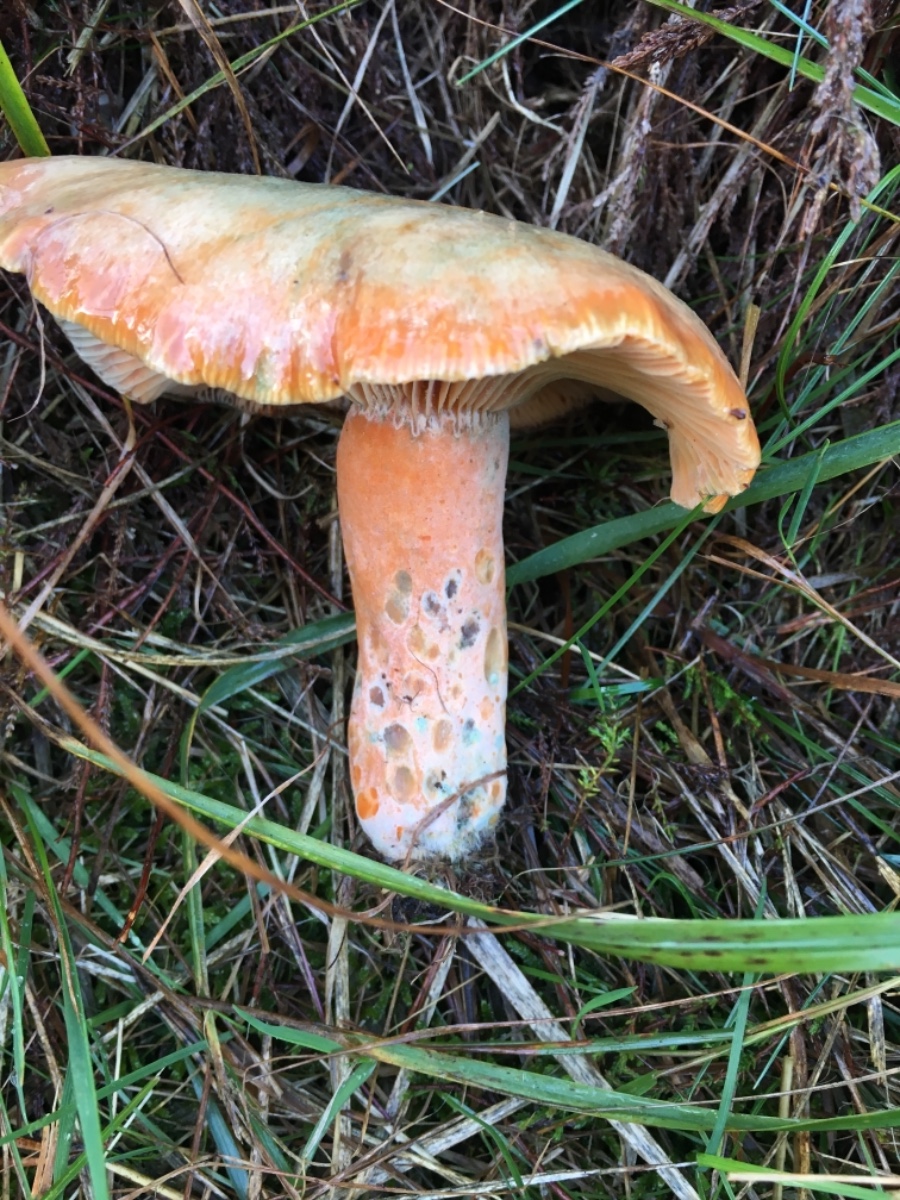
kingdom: Fungi
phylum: Basidiomycota
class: Agaricomycetes
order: Russulales
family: Russulaceae
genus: Lactarius
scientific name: Lactarius deliciosus
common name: velsmagende mælkehat
